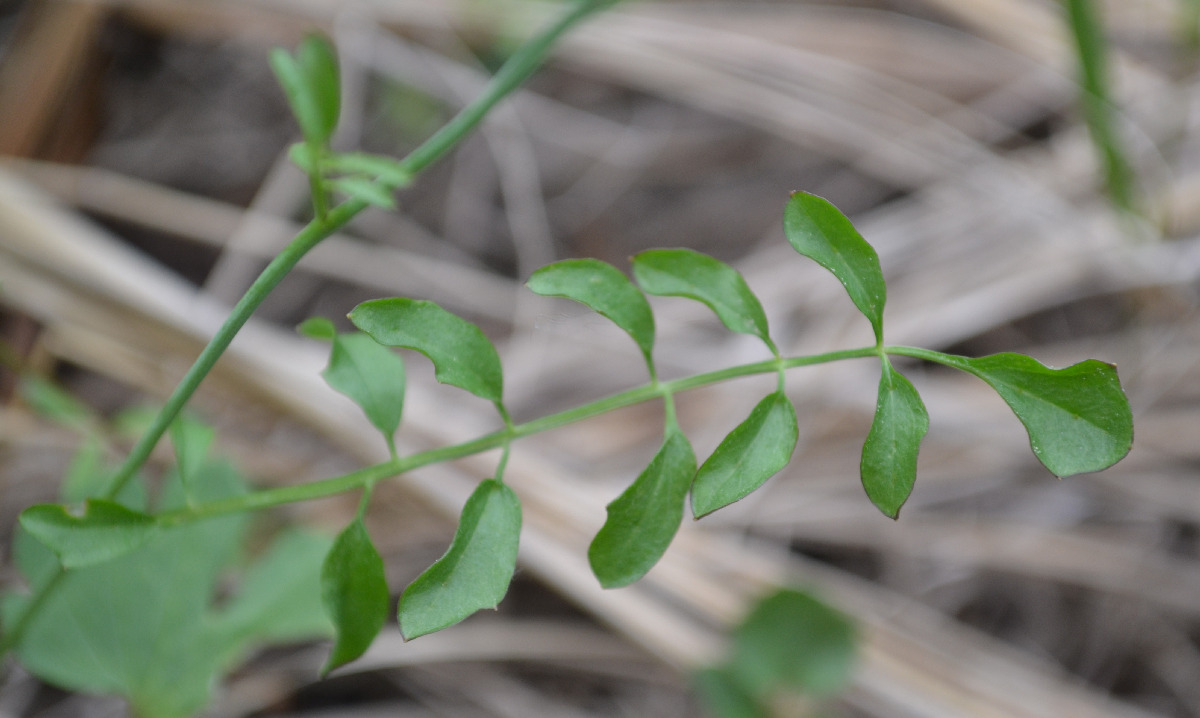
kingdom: Plantae
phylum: Tracheophyta
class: Magnoliopsida
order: Brassicales
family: Brassicaceae
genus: Cardamine
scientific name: Cardamine pratensis
